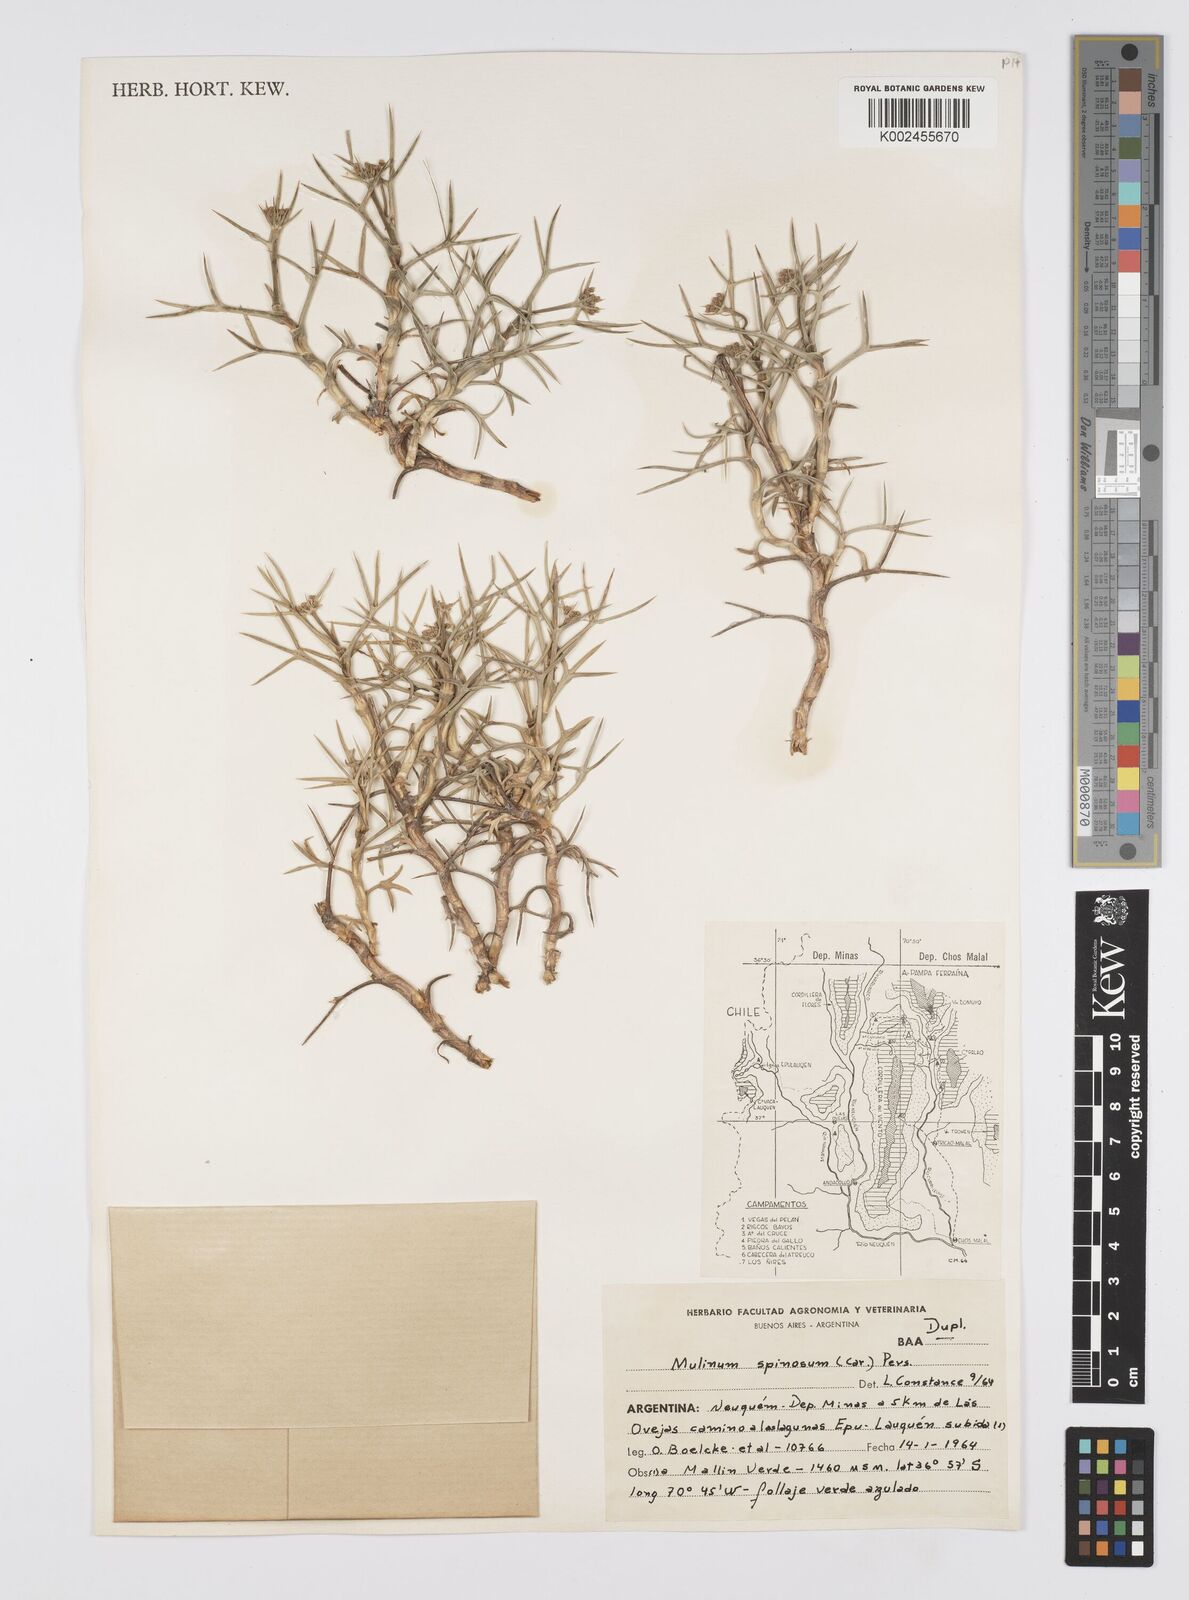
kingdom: Plantae
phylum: Tracheophyta
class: Magnoliopsida
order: Apiales
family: Apiaceae
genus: Azorella
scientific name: Azorella prolifera
